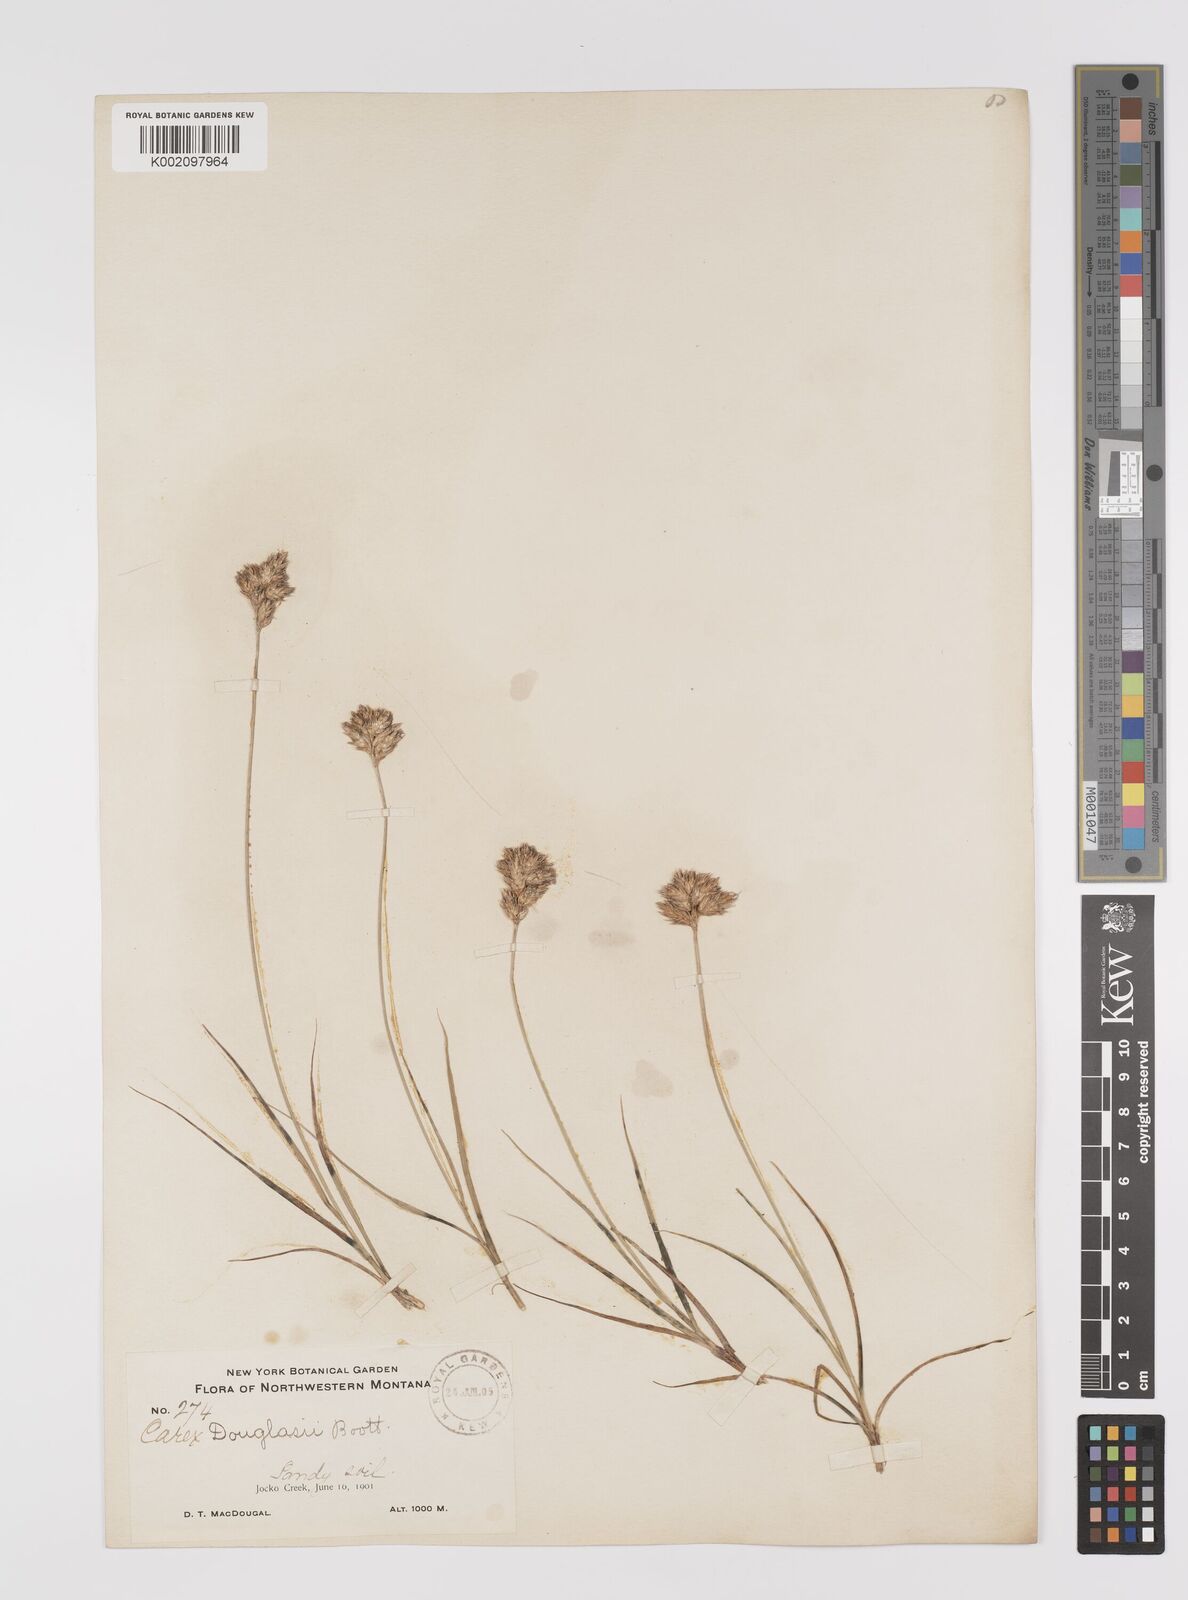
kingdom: Plantae
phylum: Tracheophyta
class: Liliopsida
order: Poales
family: Cyperaceae
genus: Carex
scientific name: Carex douglasii
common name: Douglas' sedge
